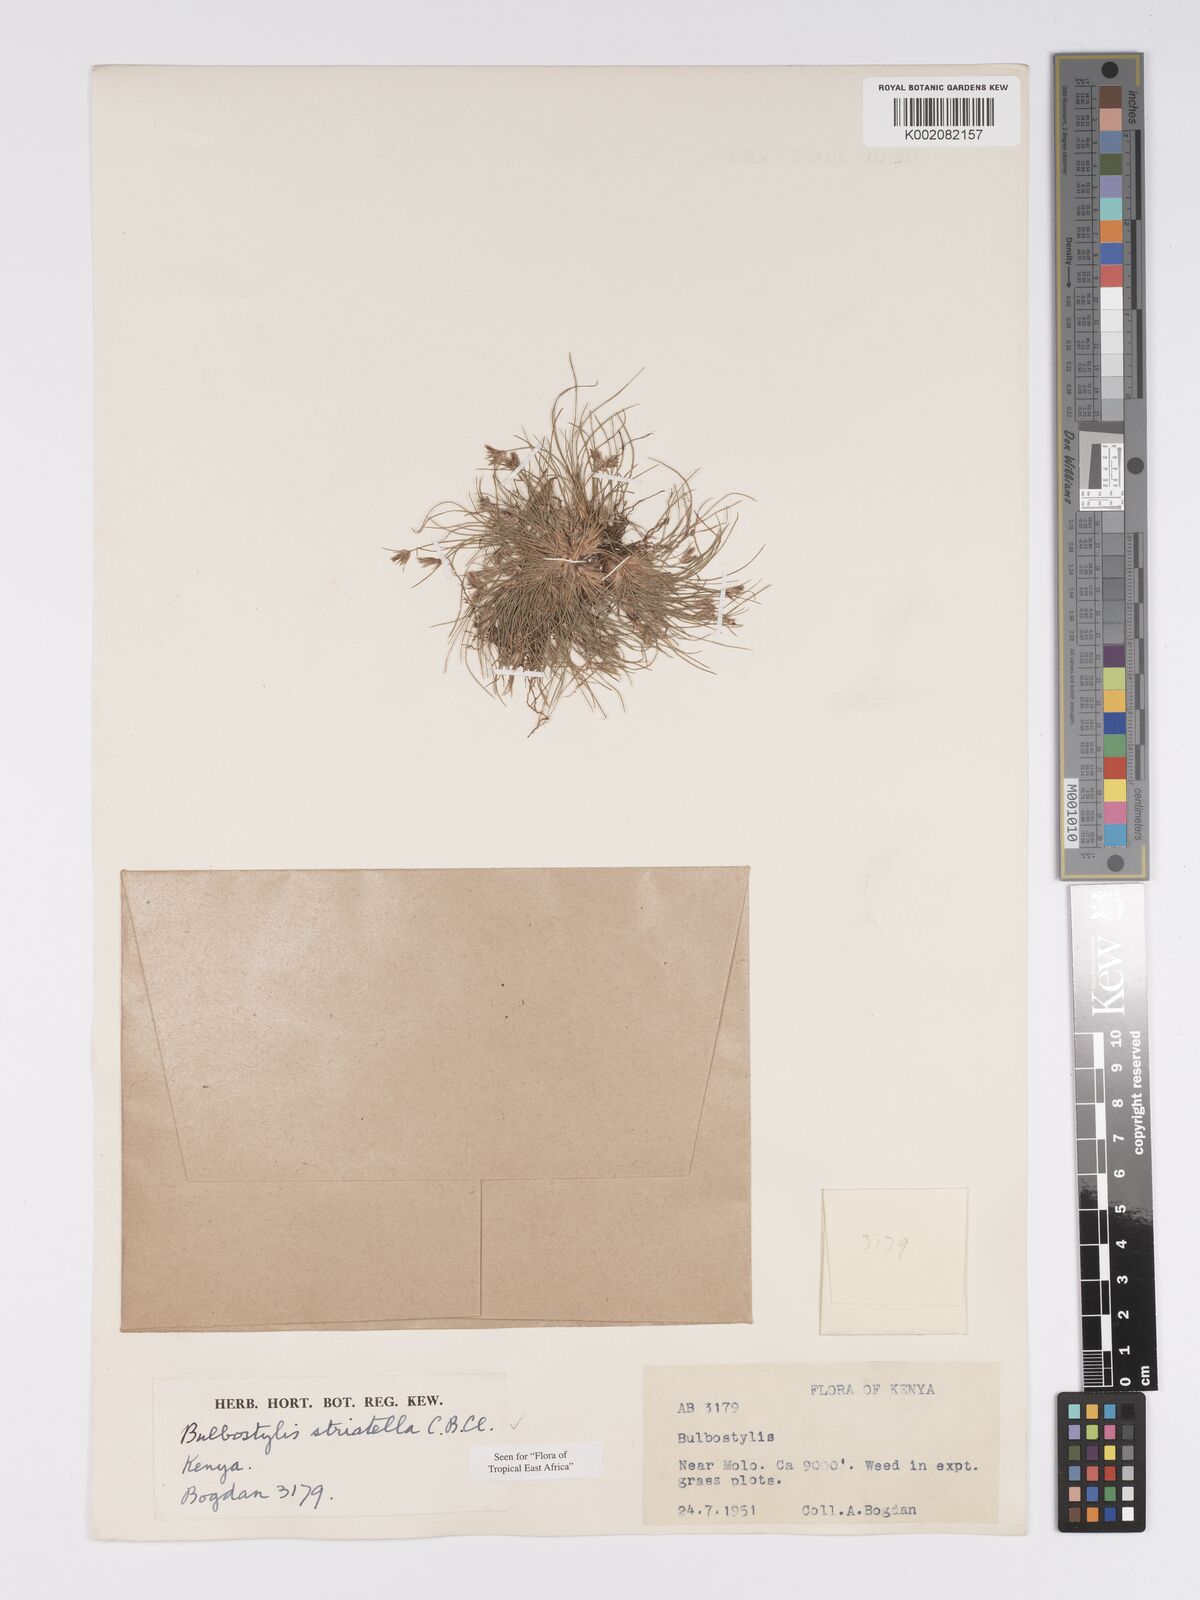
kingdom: Plantae
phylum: Tracheophyta
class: Liliopsida
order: Poales
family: Cyperaceae
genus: Bulbostylis
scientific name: Bulbostylis humilis
